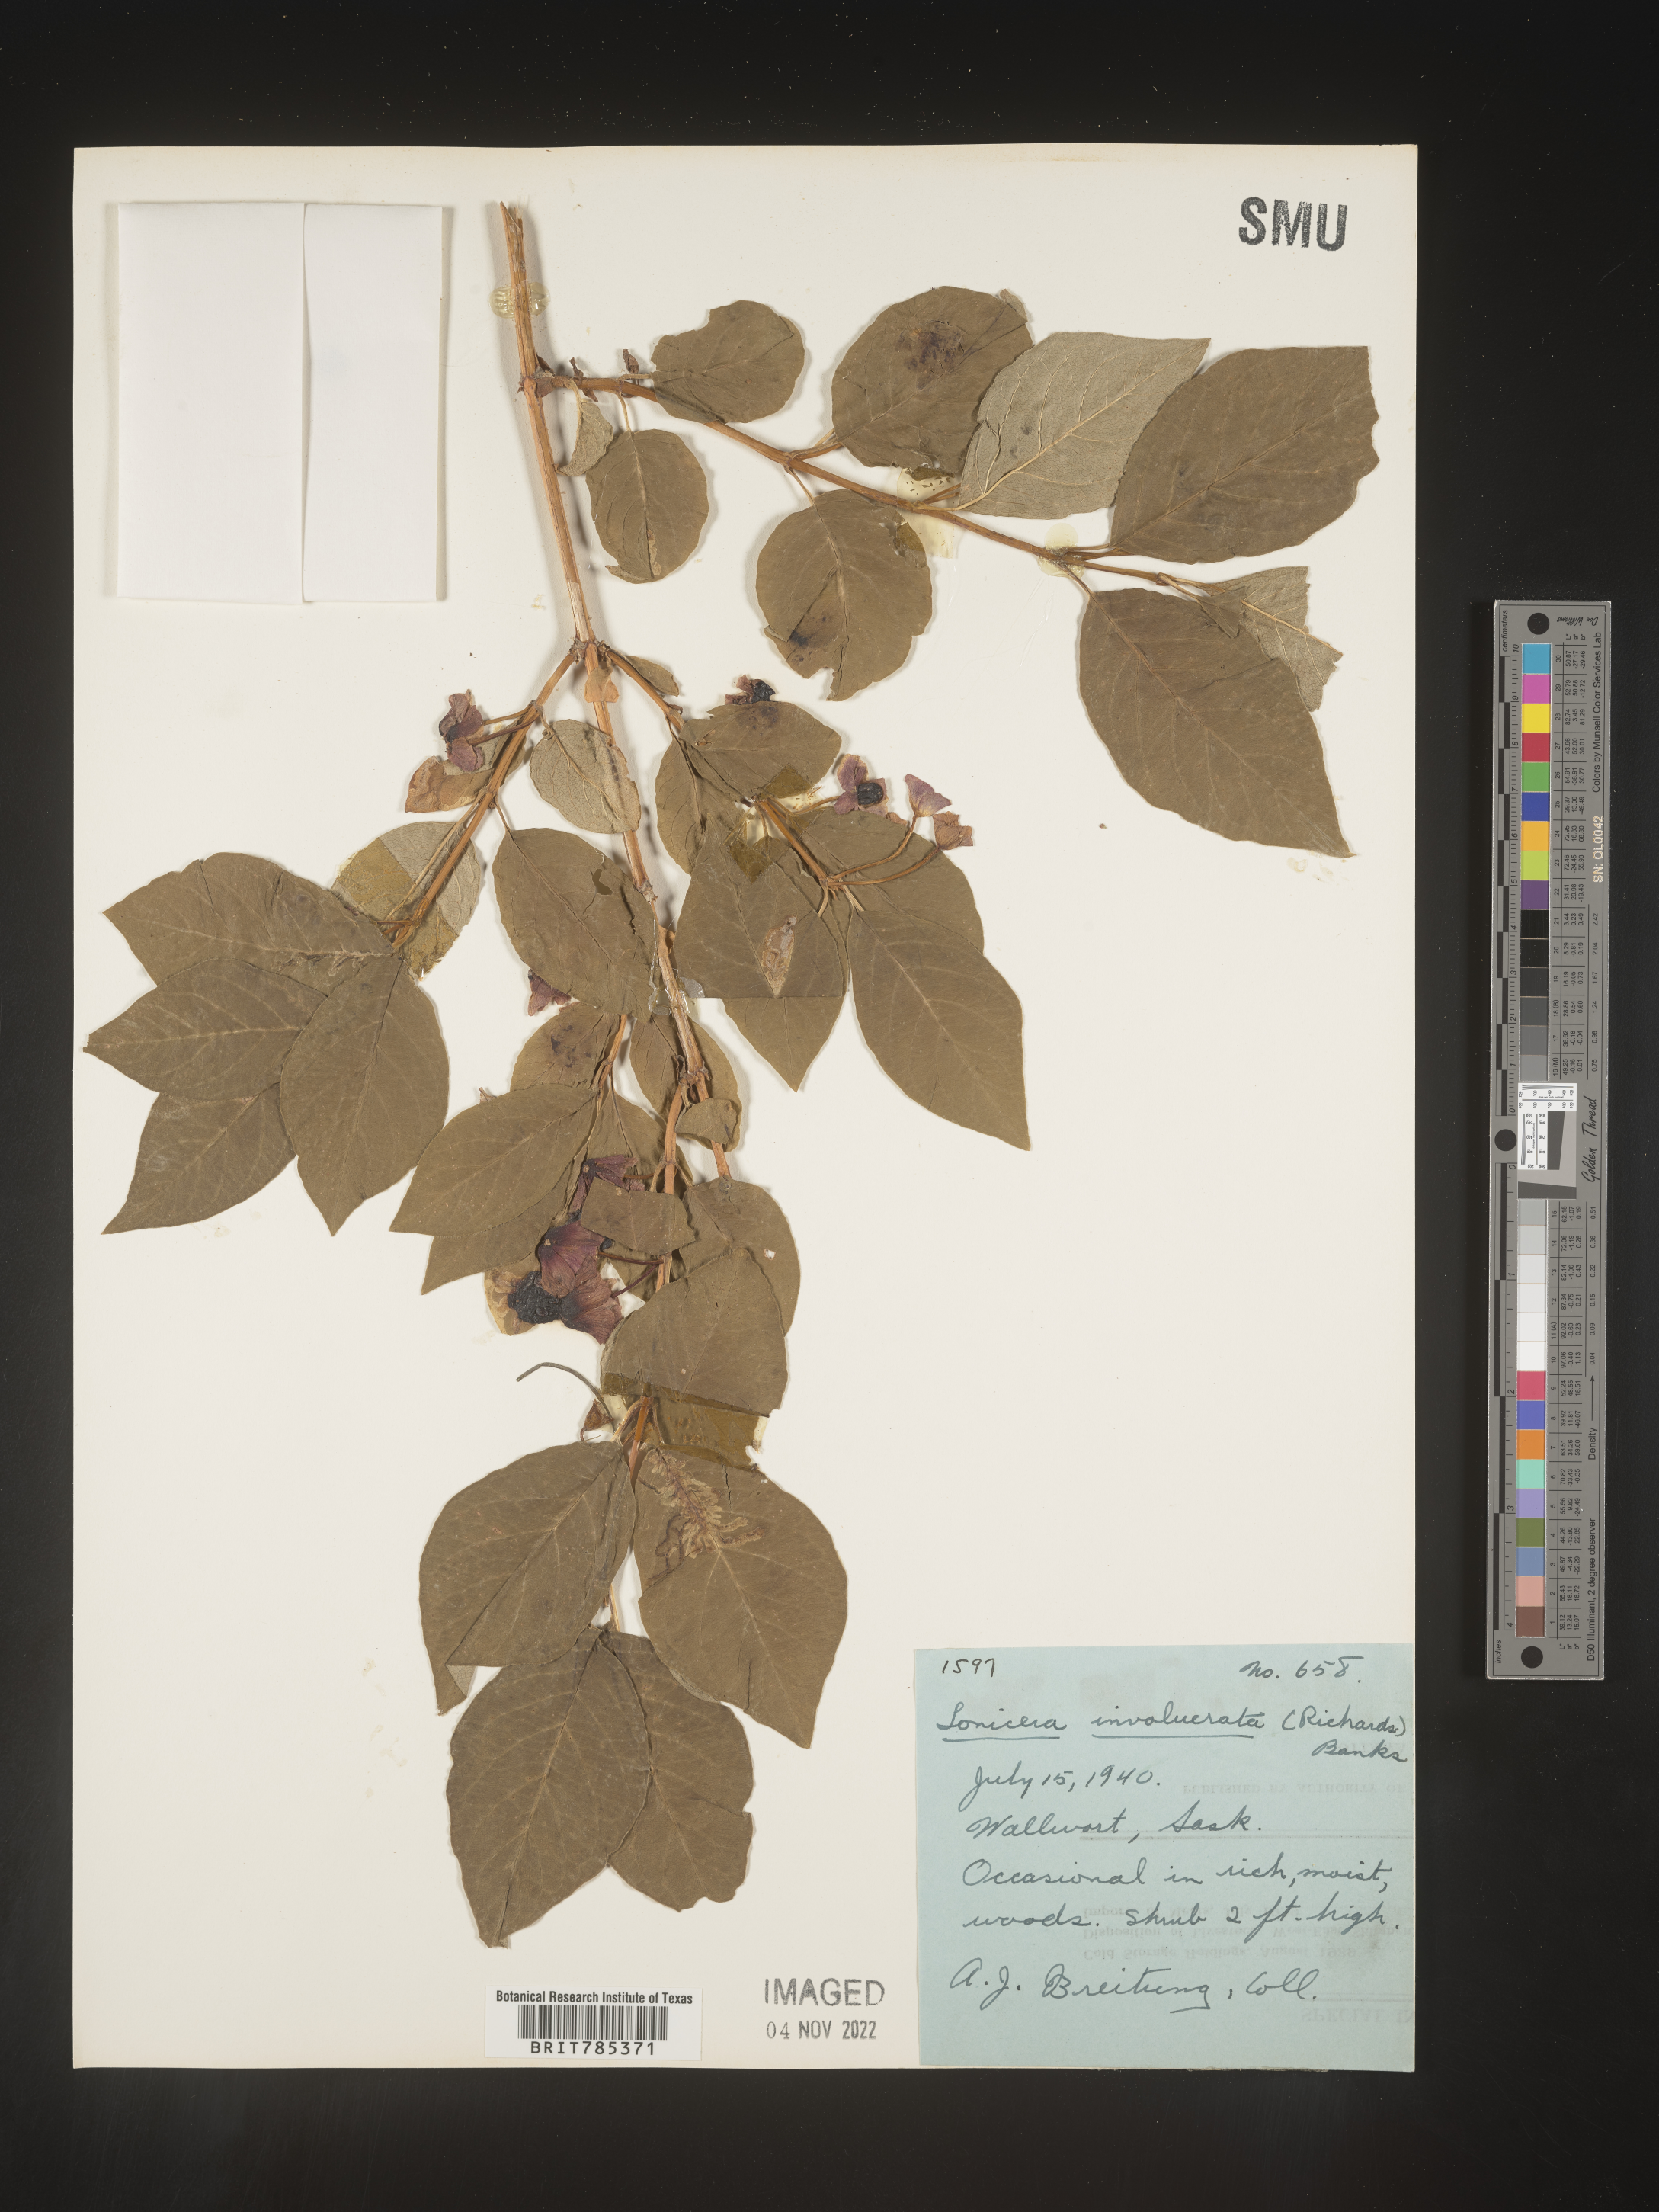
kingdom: Plantae
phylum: Tracheophyta
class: Magnoliopsida
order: Dipsacales
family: Caprifoliaceae
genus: Lonicera
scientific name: Lonicera involucrata
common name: Californian honeysuckle
